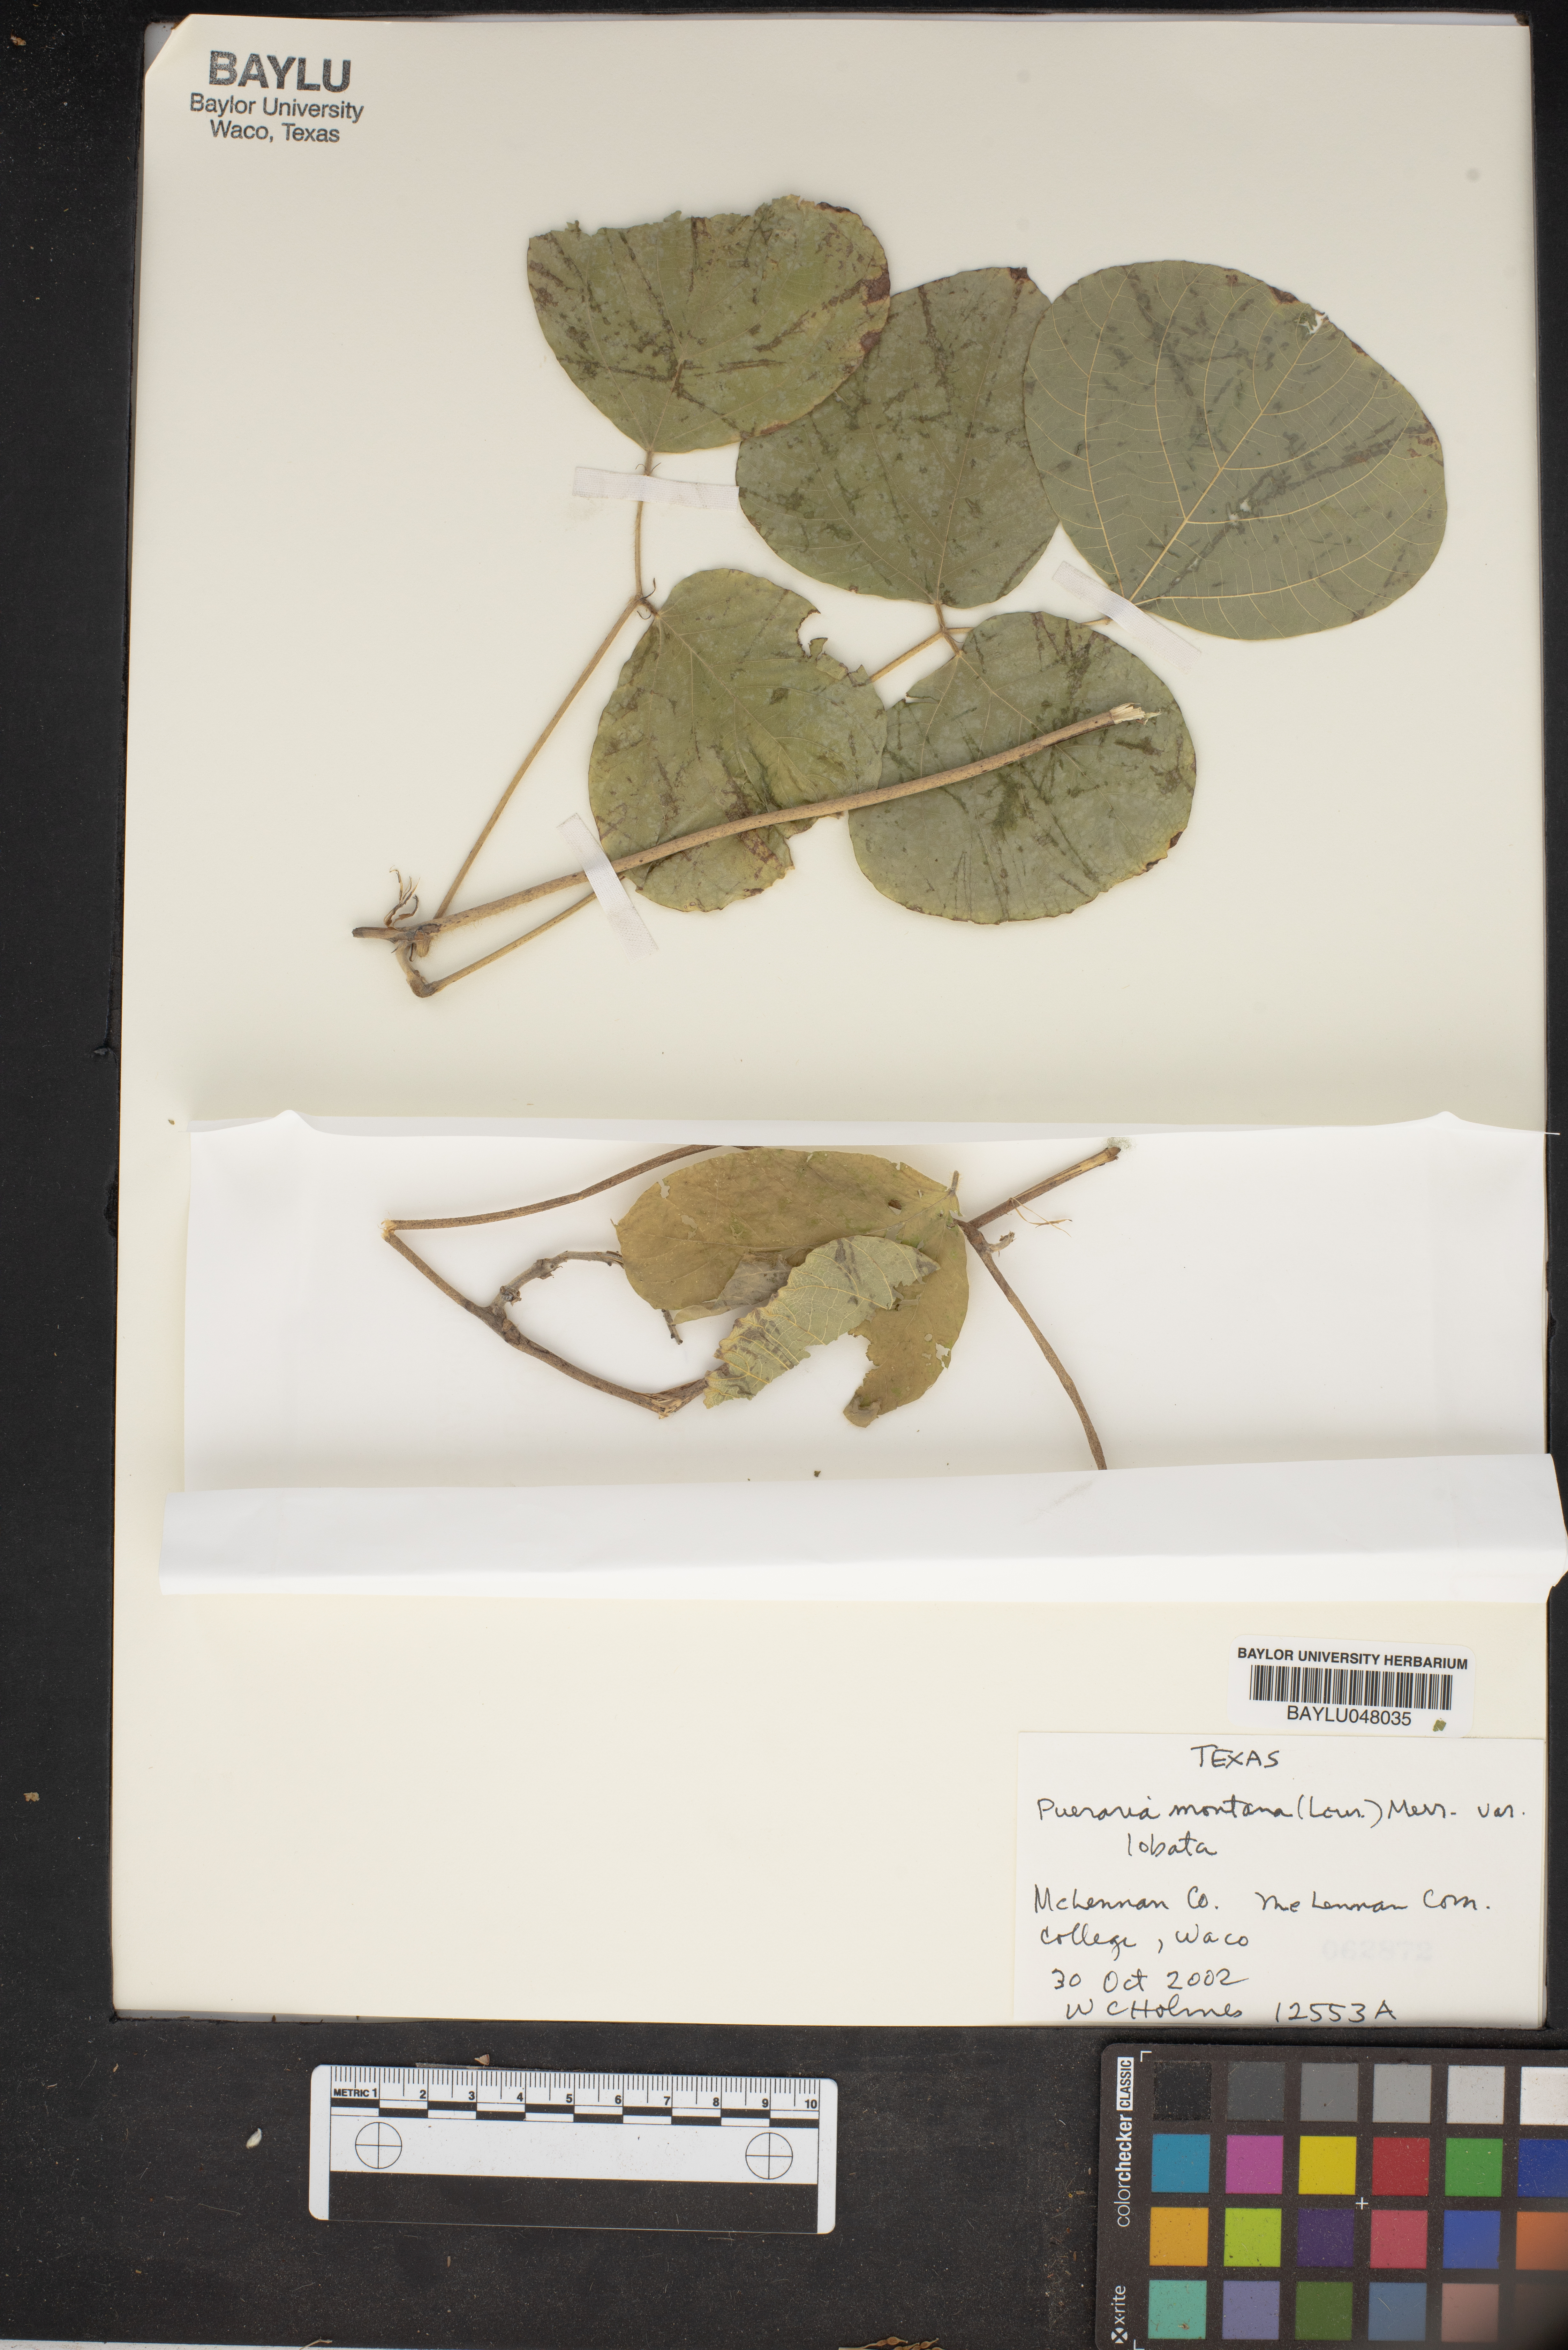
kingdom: Plantae
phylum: Tracheophyta
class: Magnoliopsida
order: Fabales
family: Fabaceae
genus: Pueraria
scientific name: Pueraria montana
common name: Kudzu
